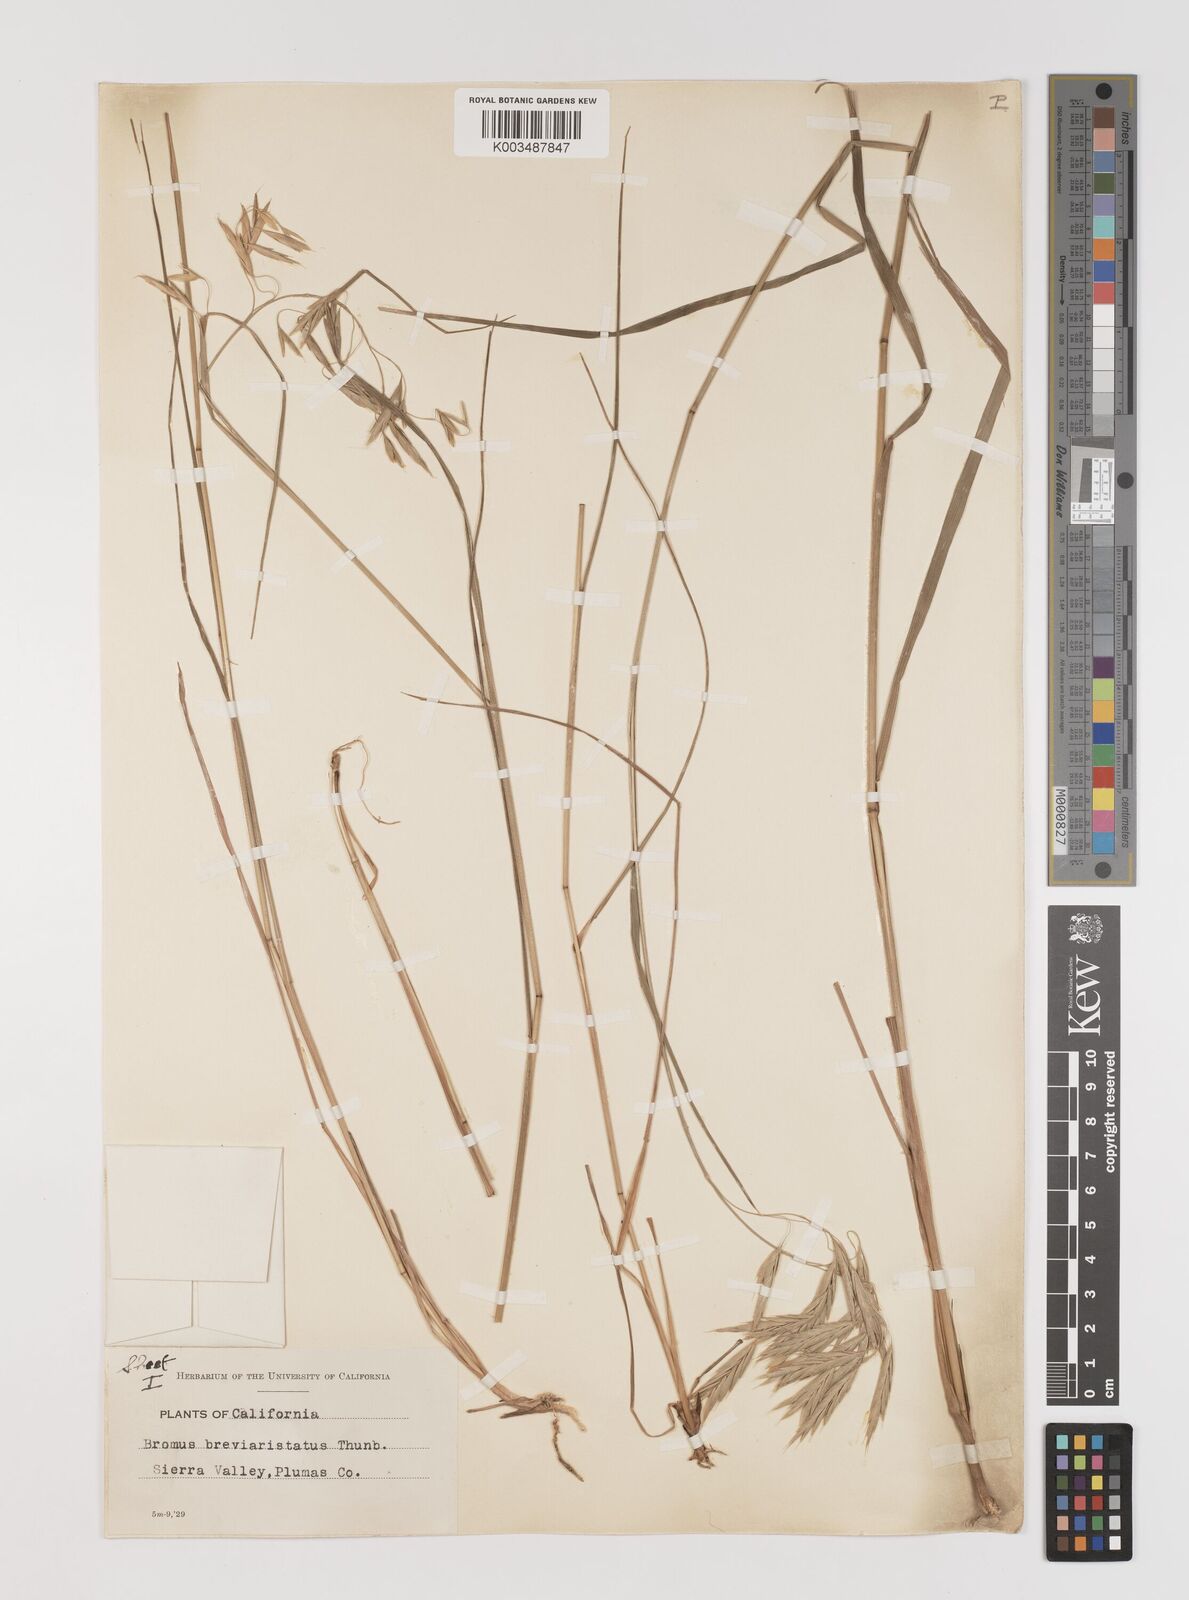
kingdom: Plantae
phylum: Tracheophyta
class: Liliopsida
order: Poales
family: Poaceae
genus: Bromus
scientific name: Bromus catharticus
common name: Rescuegrass
